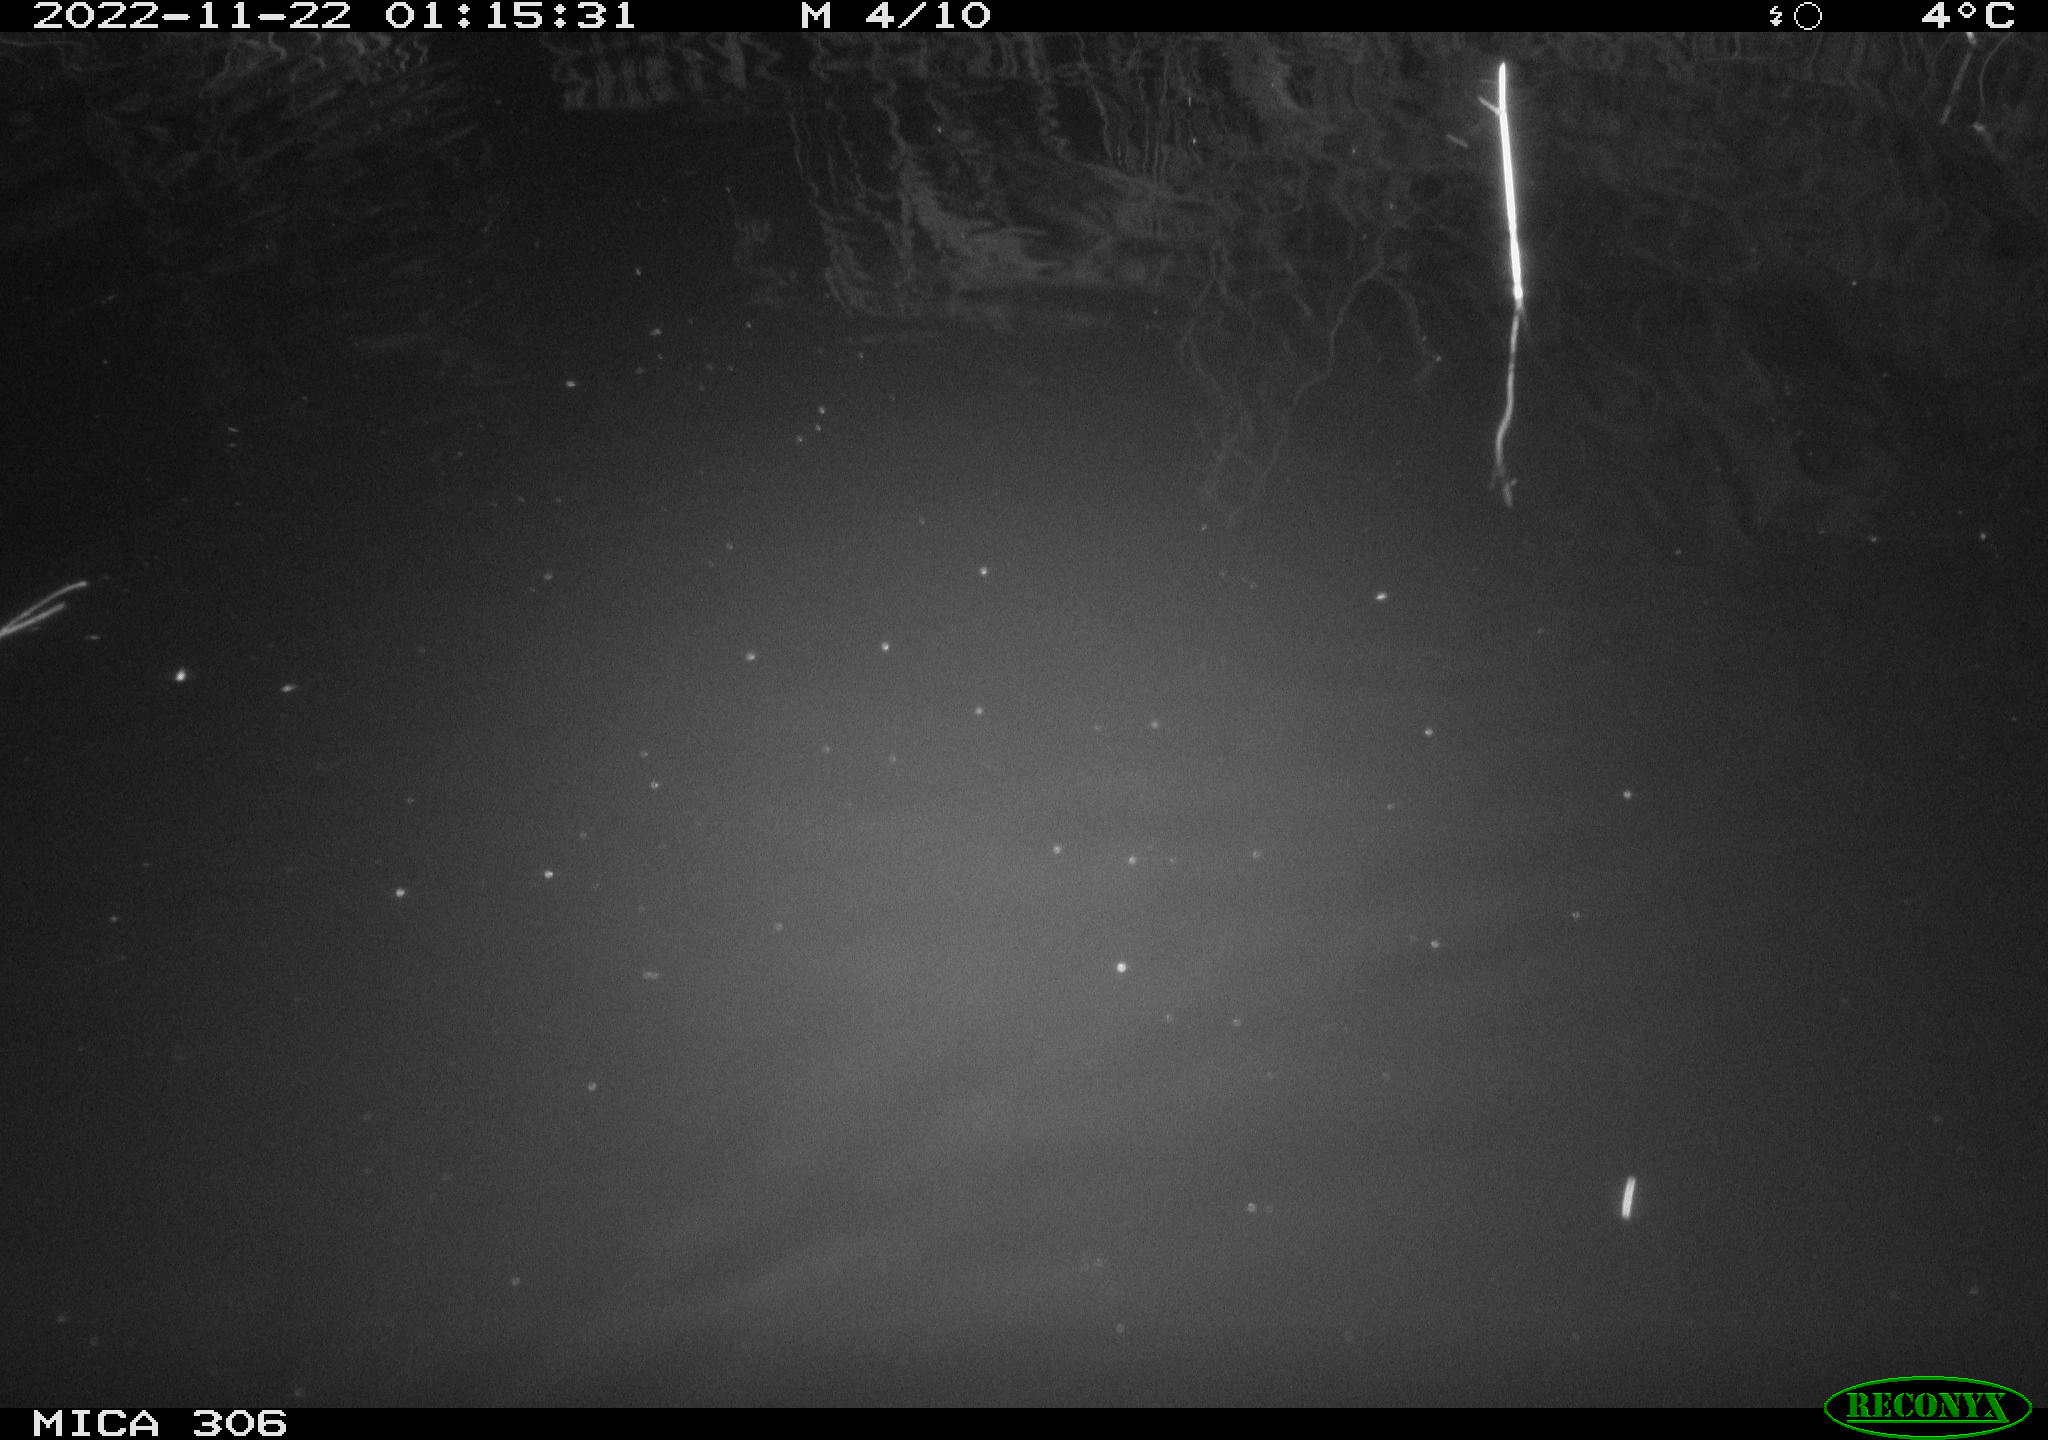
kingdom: Animalia
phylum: Chordata
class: Mammalia
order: Rodentia
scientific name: Rodentia
